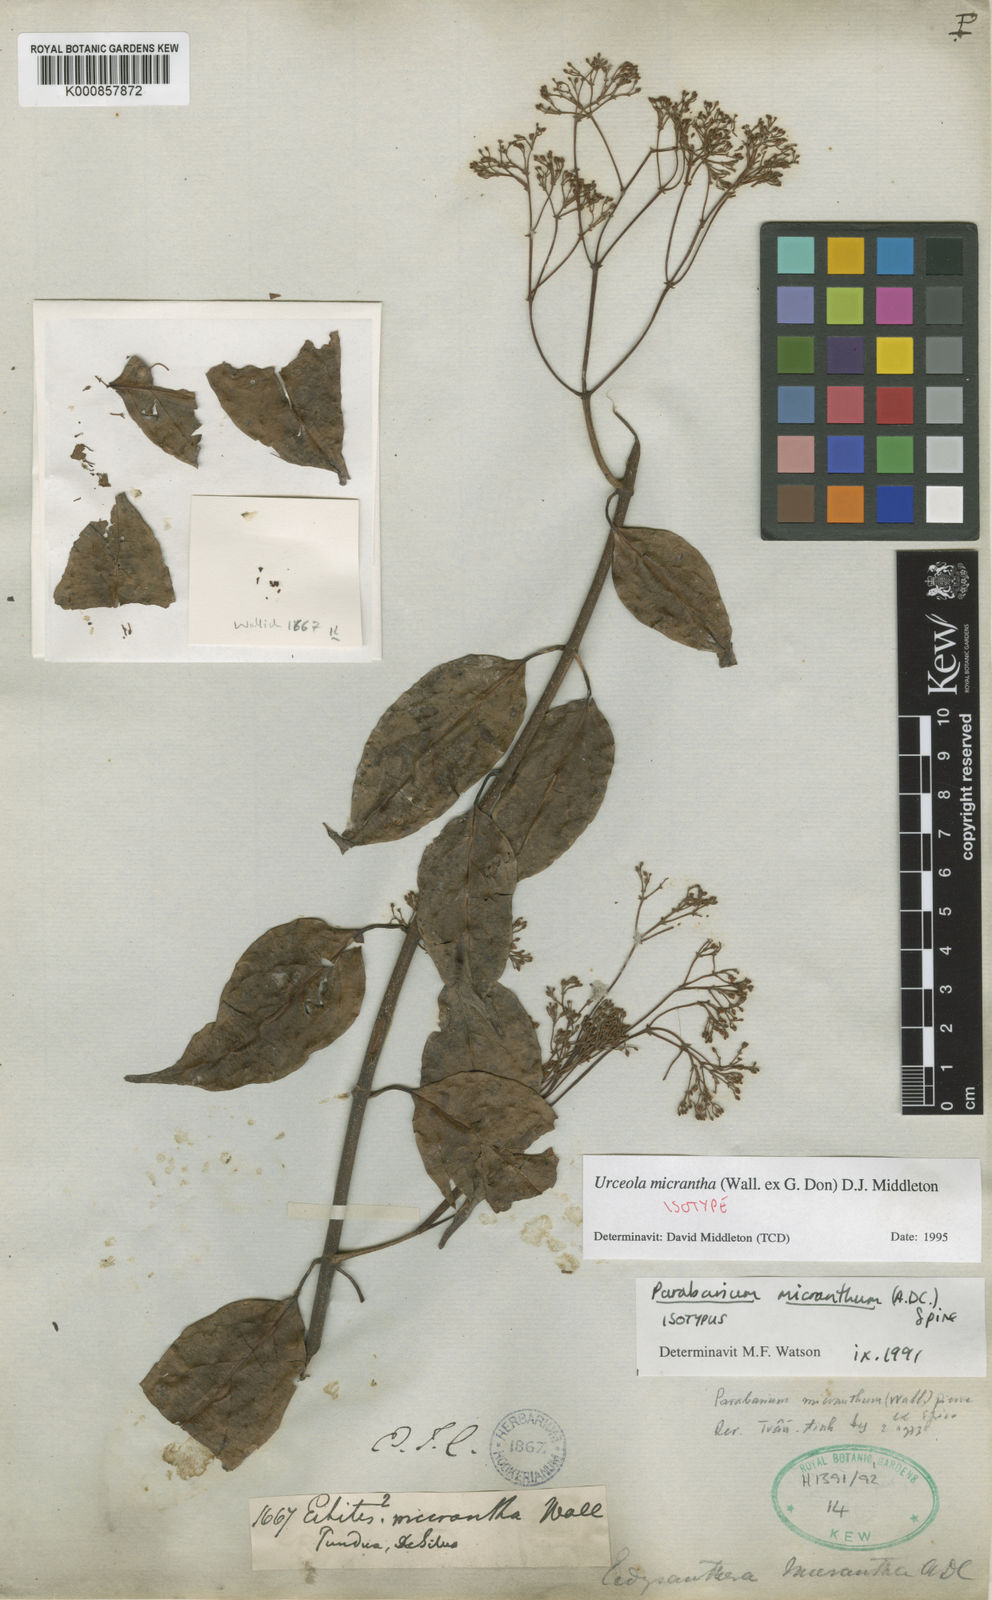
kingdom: Plantae
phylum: Tracheophyta
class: Magnoliopsida
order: Gentianales
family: Apocynaceae
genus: Urceola
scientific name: Urceola micrantha
